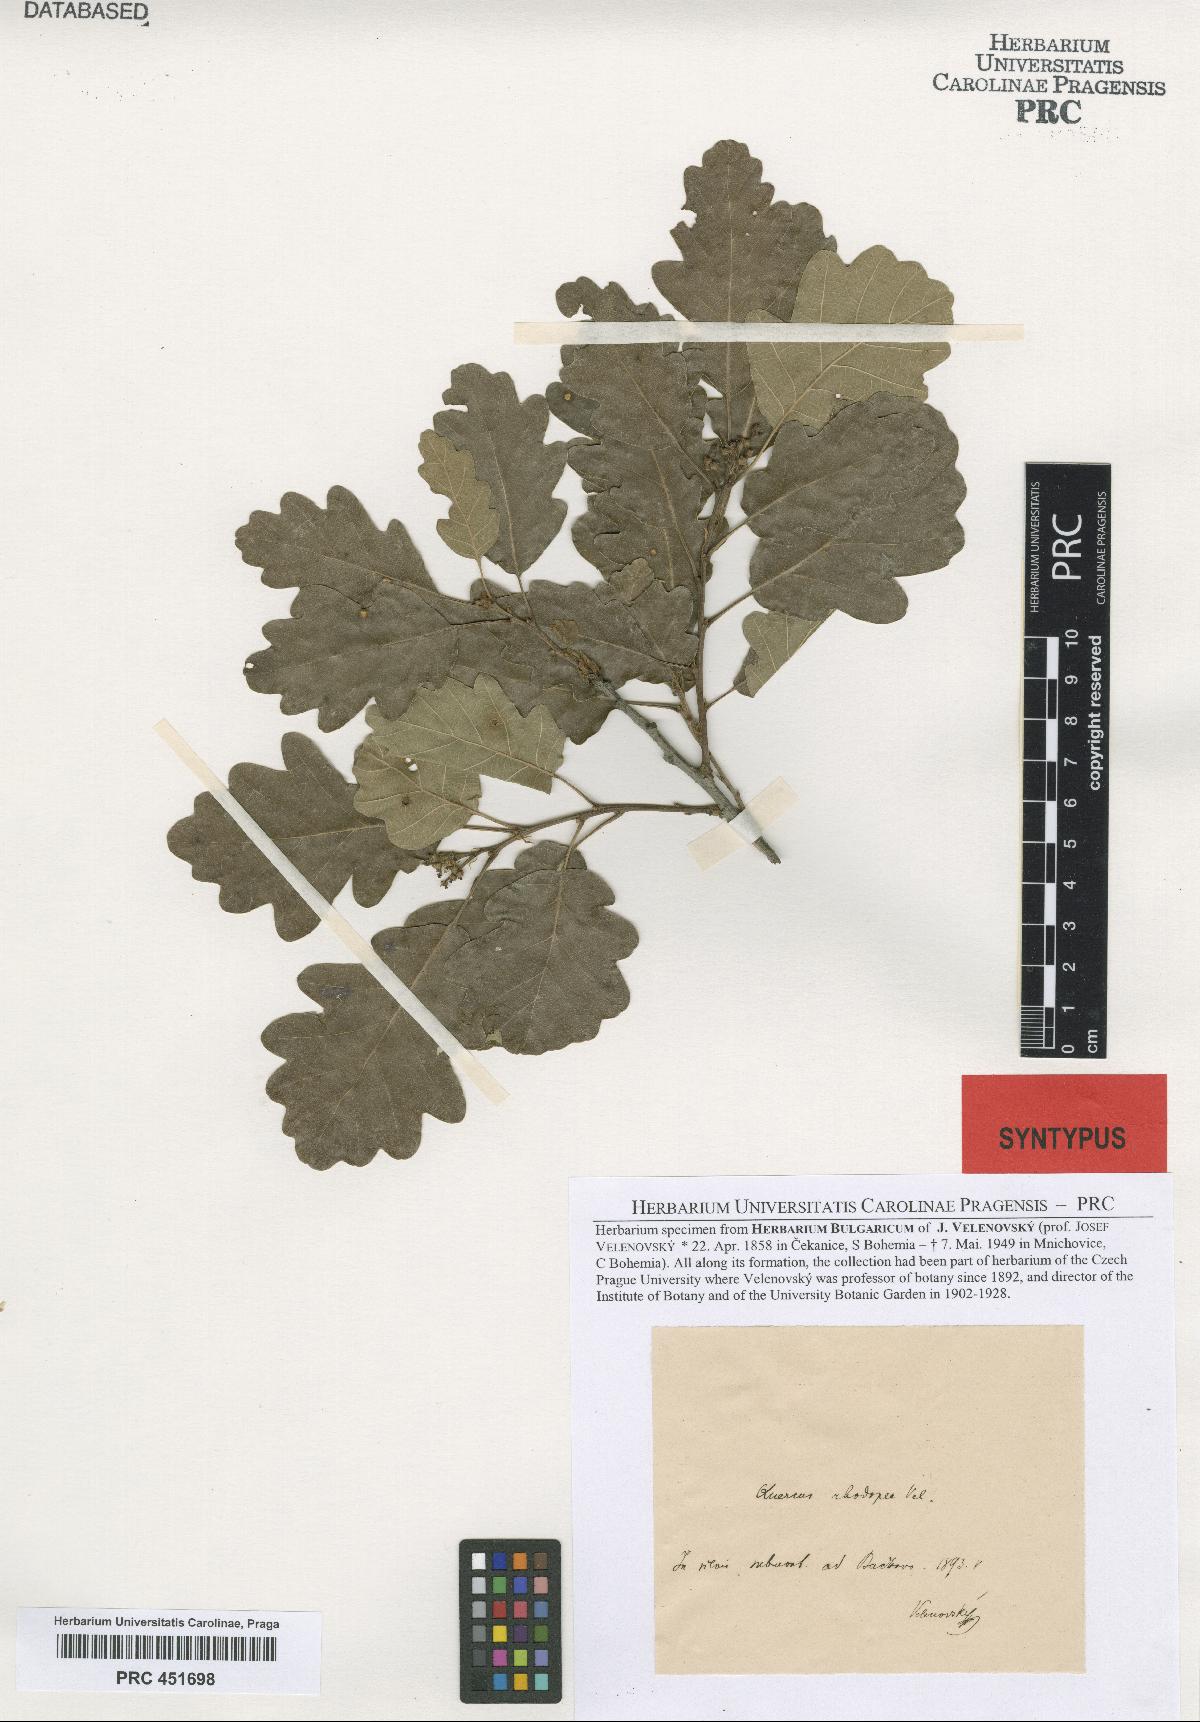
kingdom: Plantae
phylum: Tracheophyta
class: Magnoliopsida
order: Fagales
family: Fagaceae
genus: Quercus
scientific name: Quercus rhodopea
